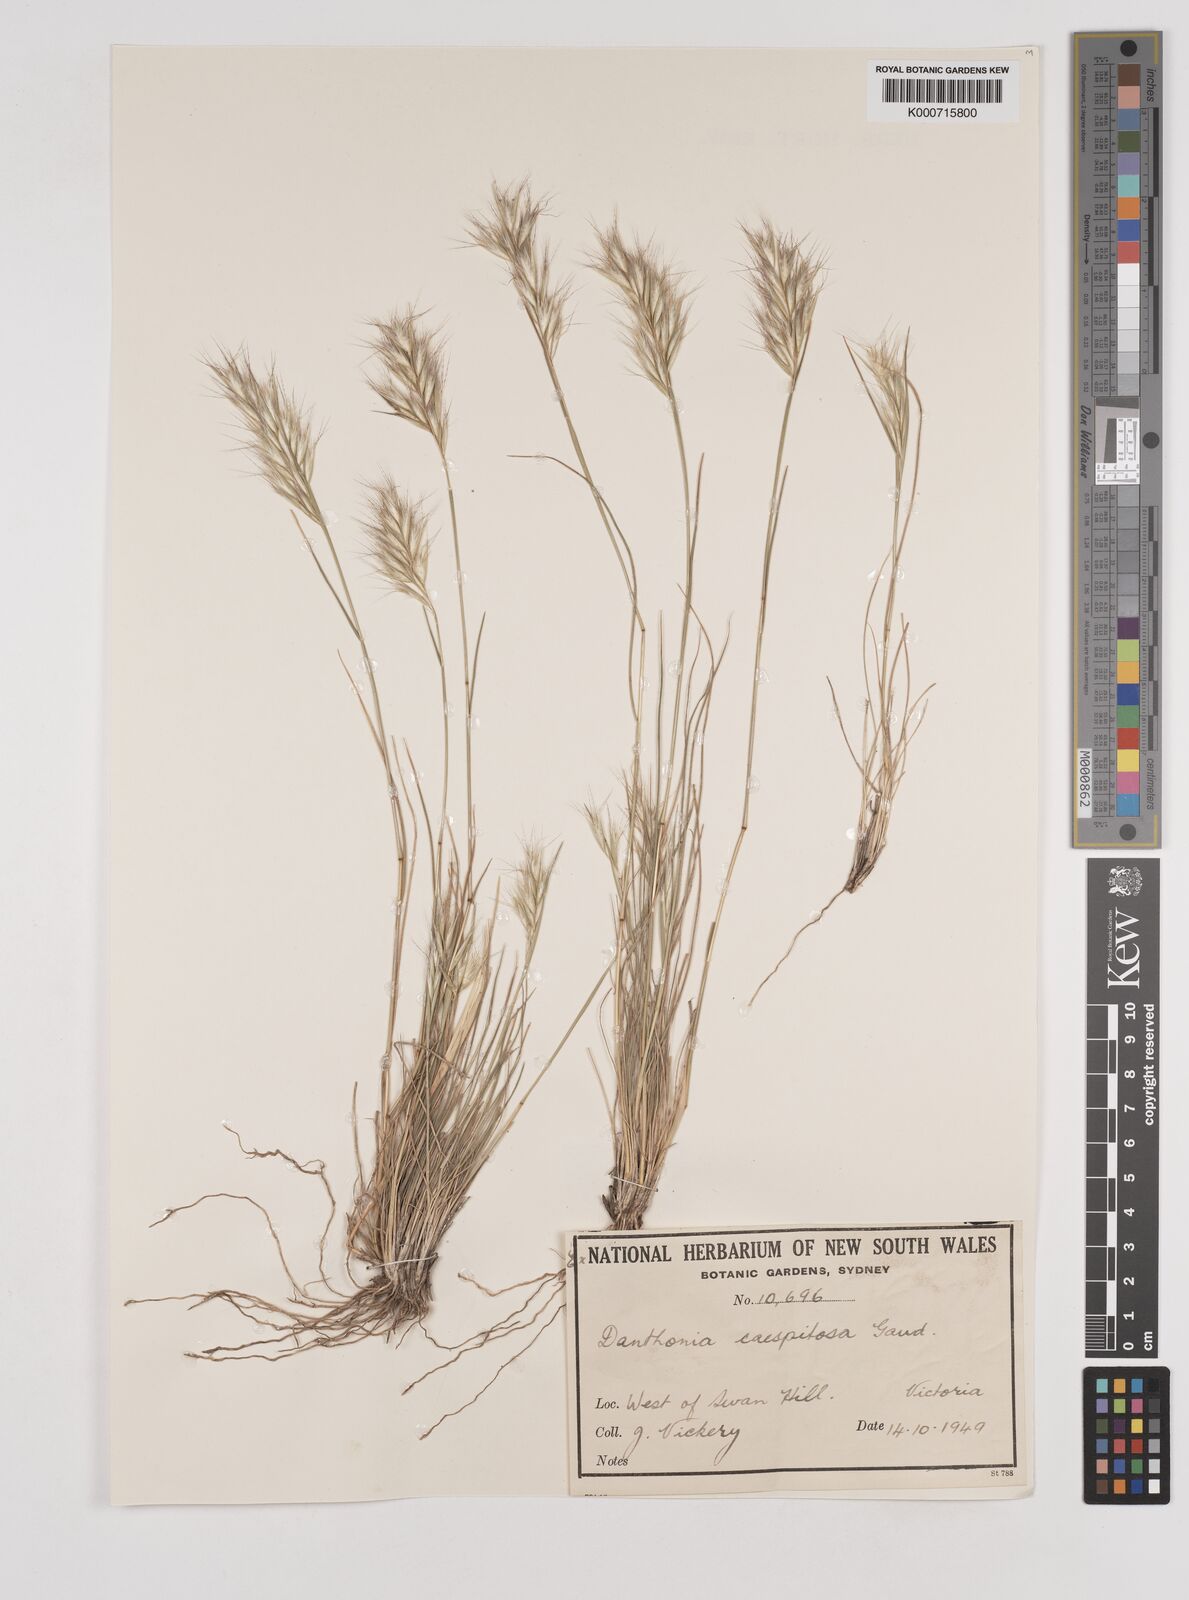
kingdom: Plantae
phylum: Tracheophyta
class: Liliopsida
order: Poales
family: Poaceae
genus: Rytidosperma
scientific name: Rytidosperma caespitosum
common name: Tufted wallaby grass
